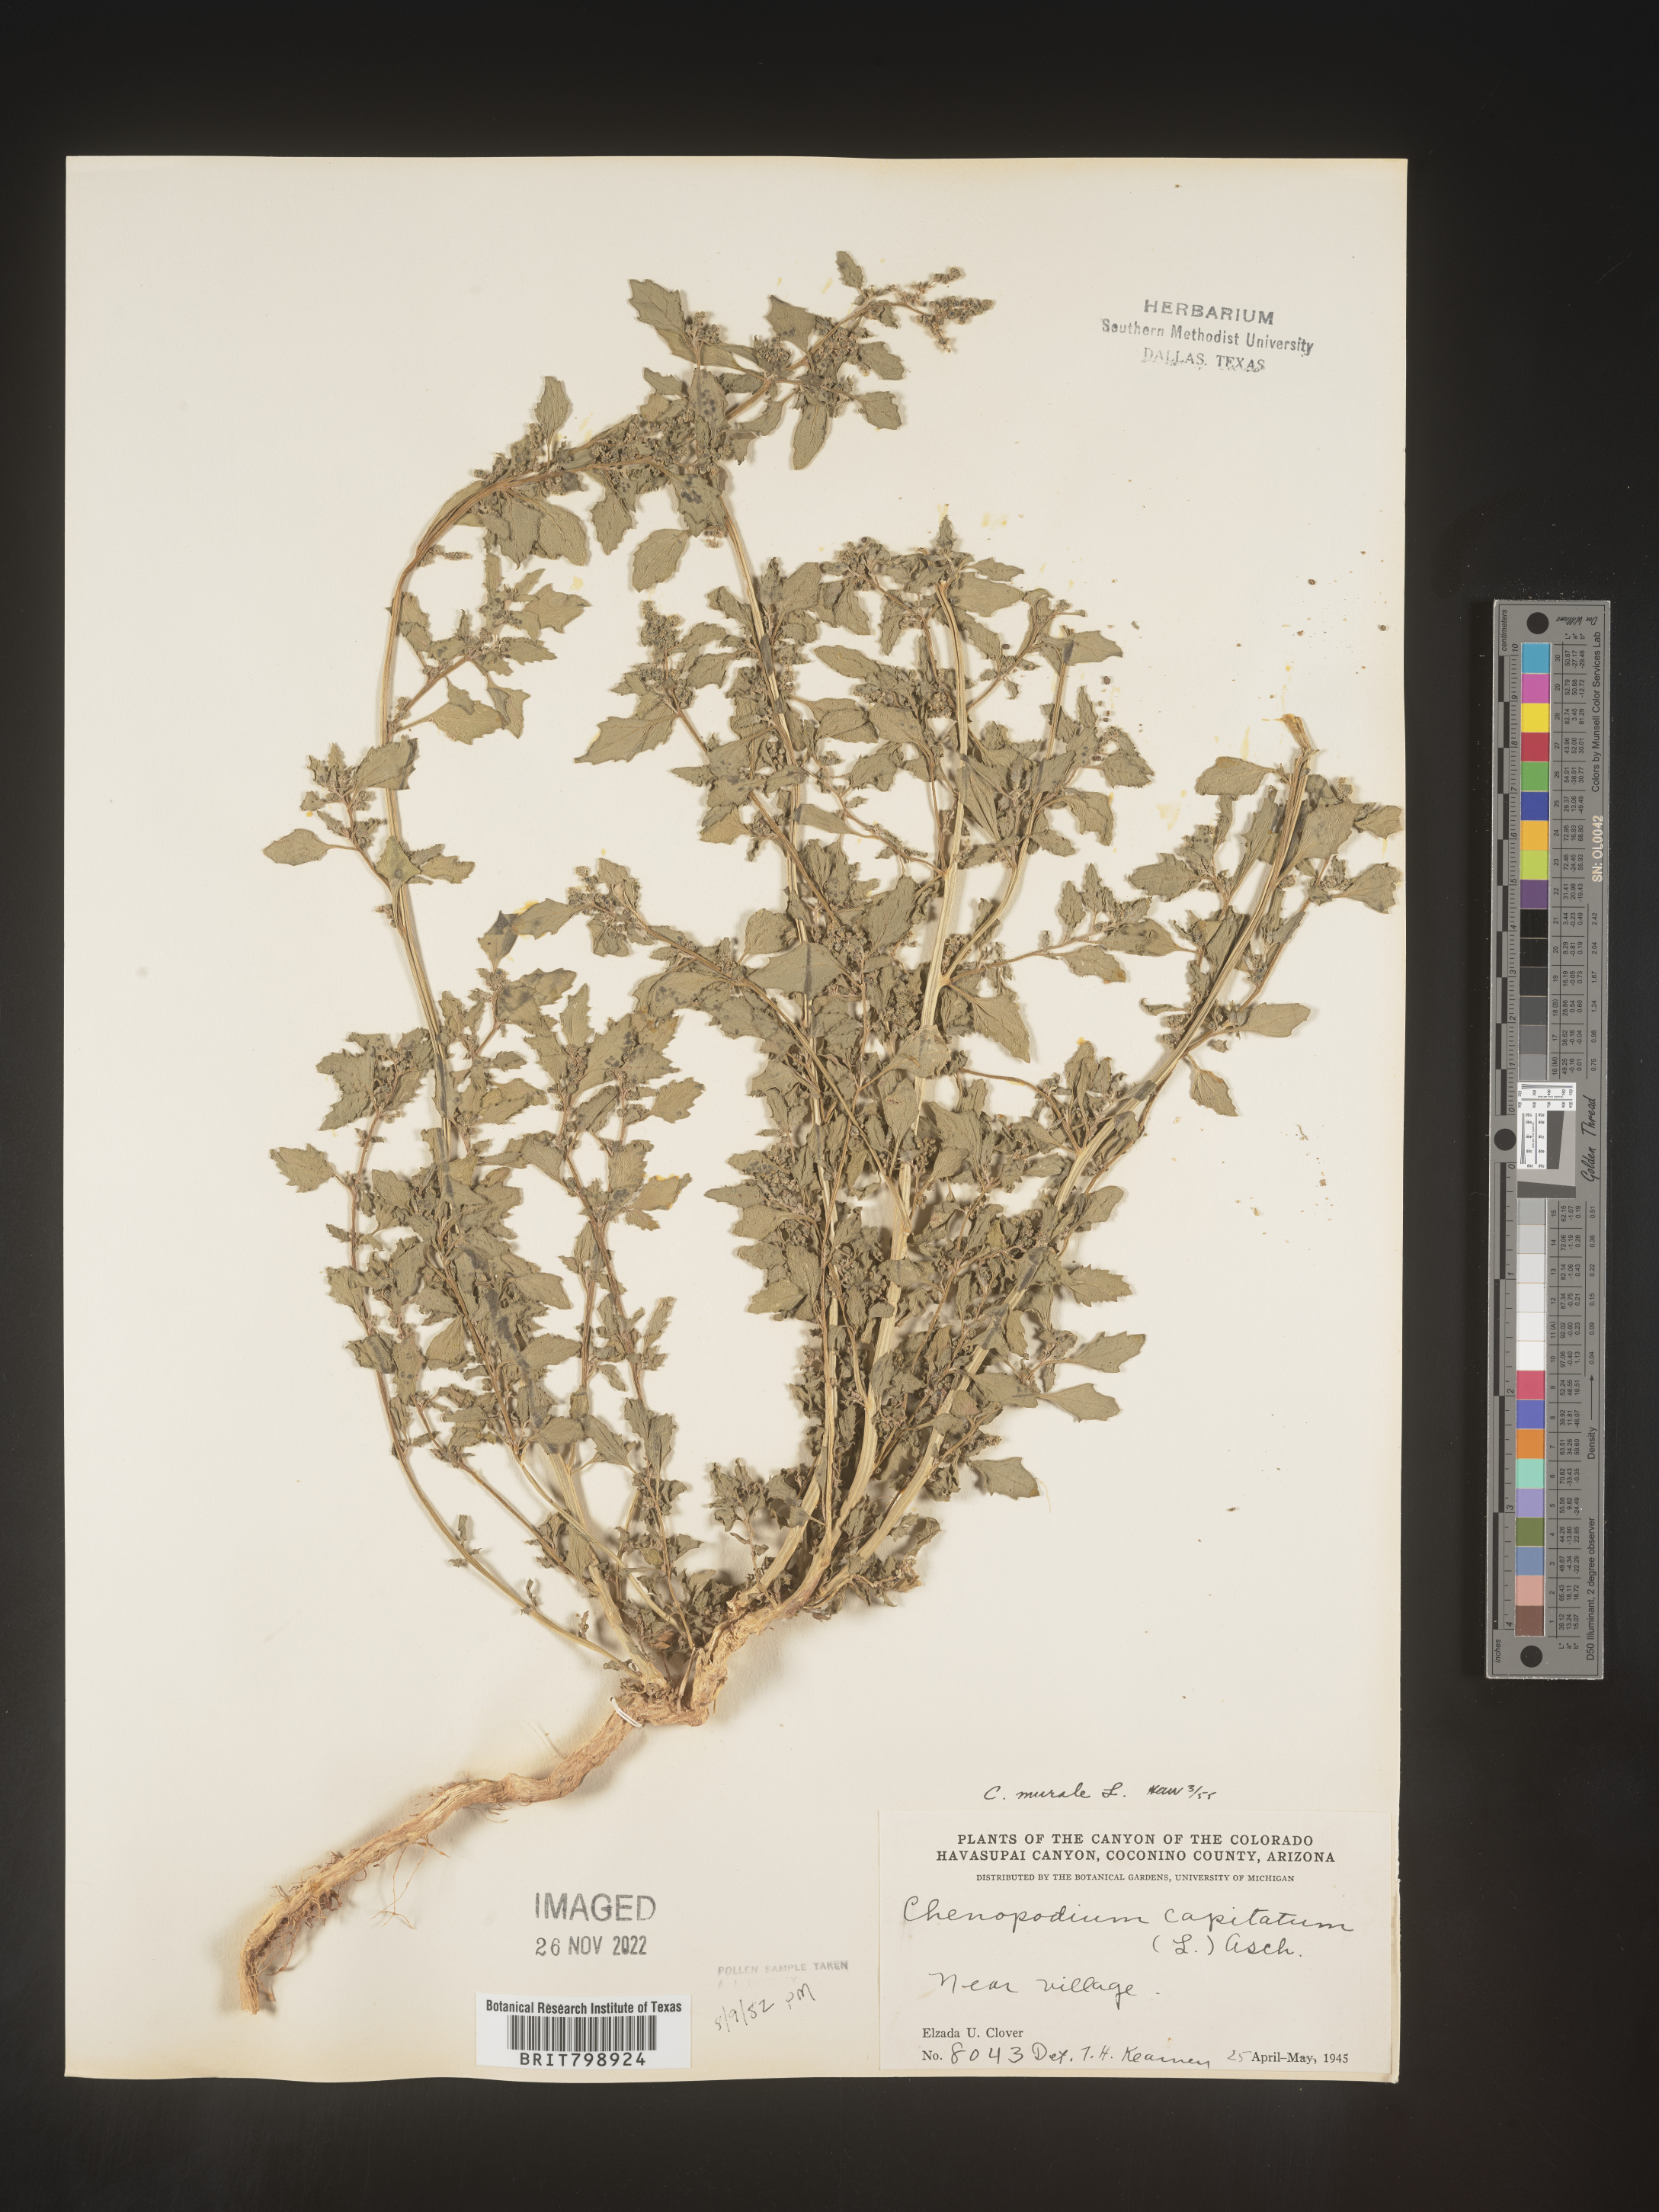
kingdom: Plantae
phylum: Tracheophyta
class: Magnoliopsida
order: Caryophyllales
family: Amaranthaceae
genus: Chenopodiastrum
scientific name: Chenopodiastrum murale
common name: Sowbane
